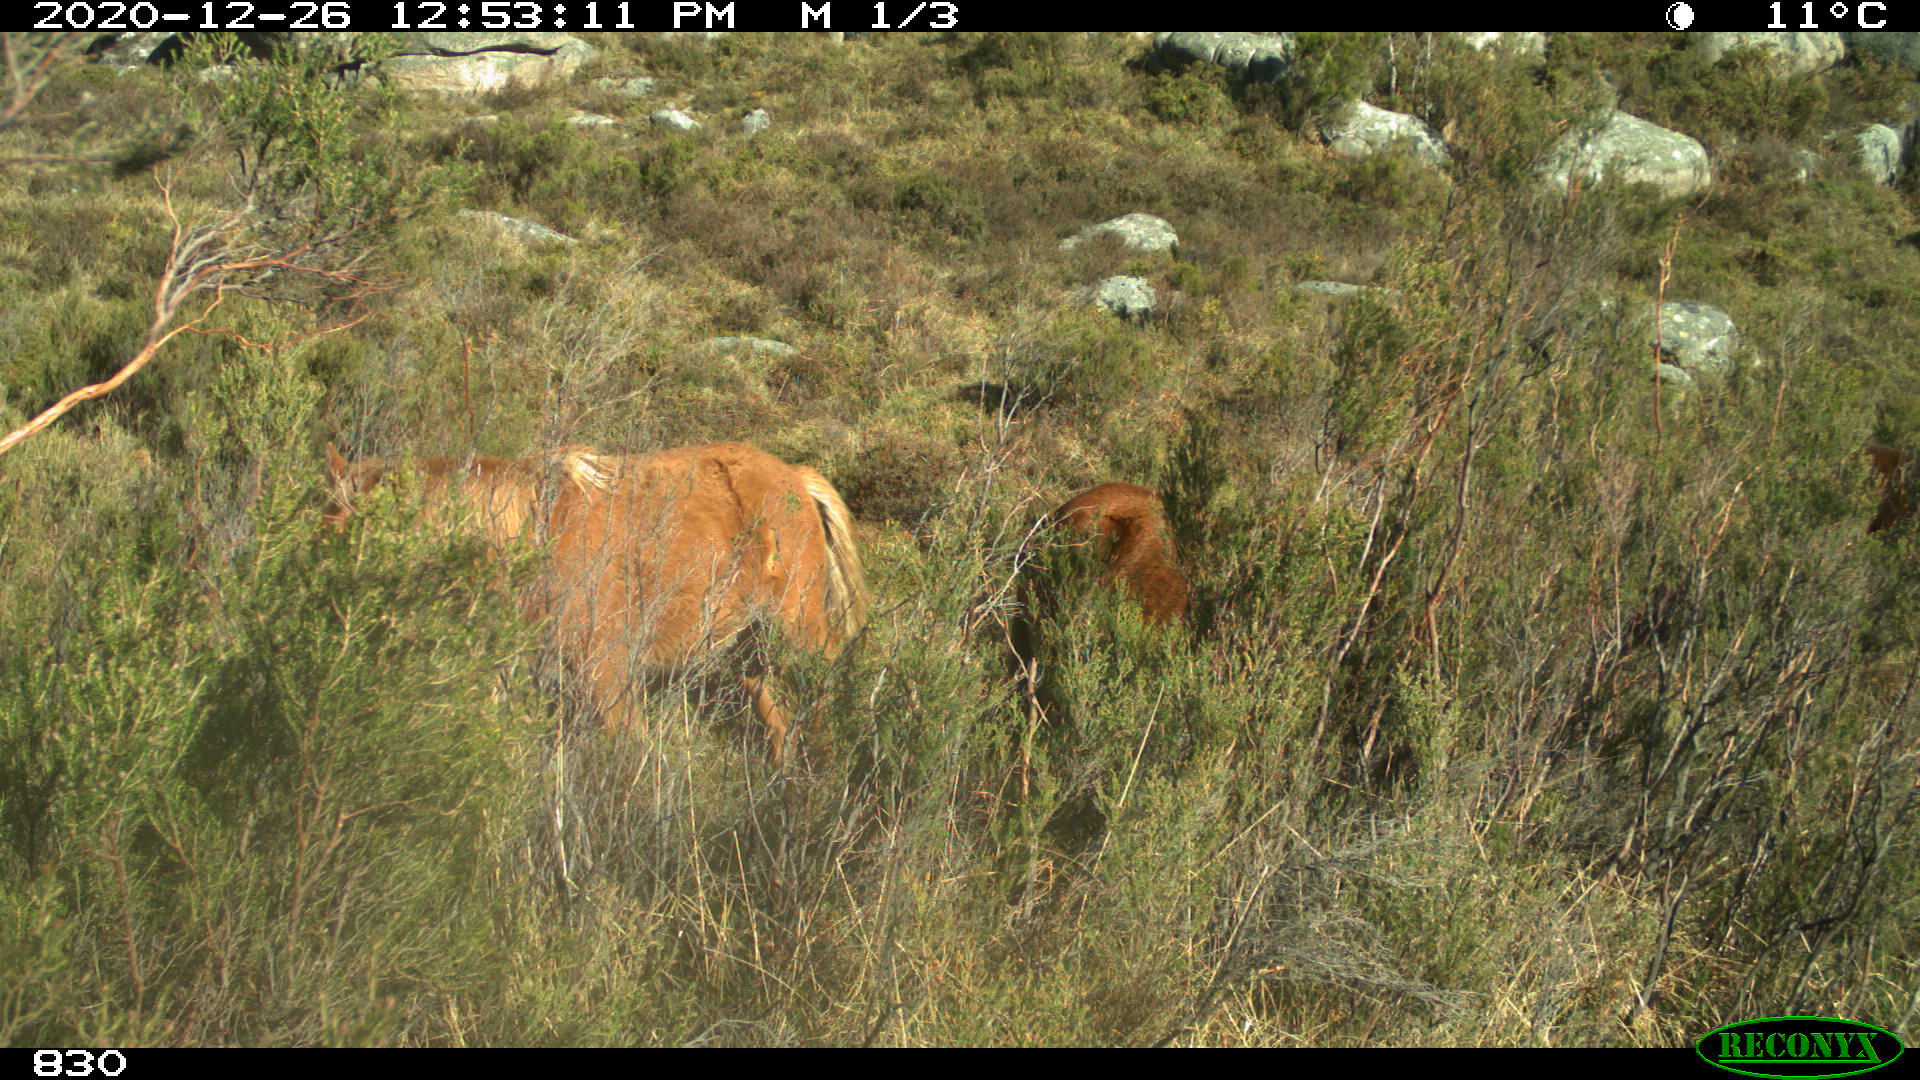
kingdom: Animalia
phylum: Chordata
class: Mammalia
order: Perissodactyla
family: Equidae
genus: Equus
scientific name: Equus caballus
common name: Horse
